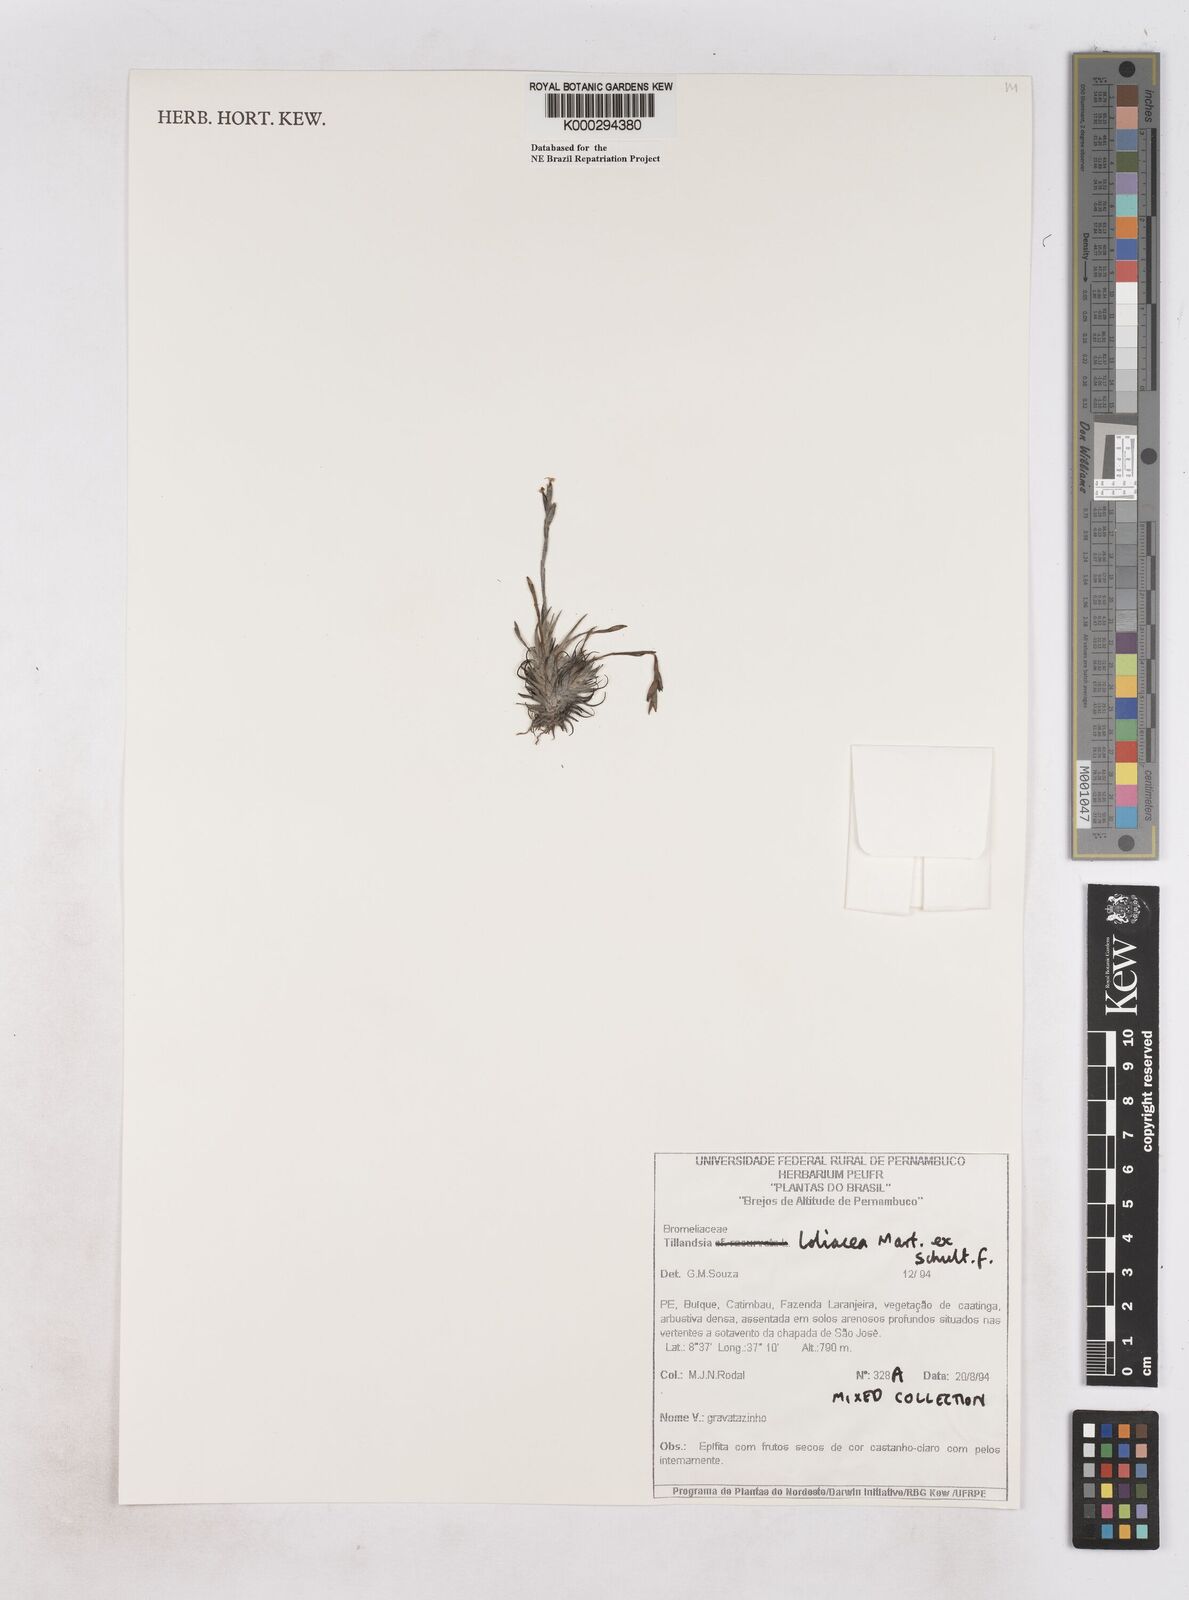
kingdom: Plantae
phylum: Tracheophyta
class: Liliopsida
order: Poales
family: Bromeliaceae
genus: Tillandsia
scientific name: Tillandsia loliacea
